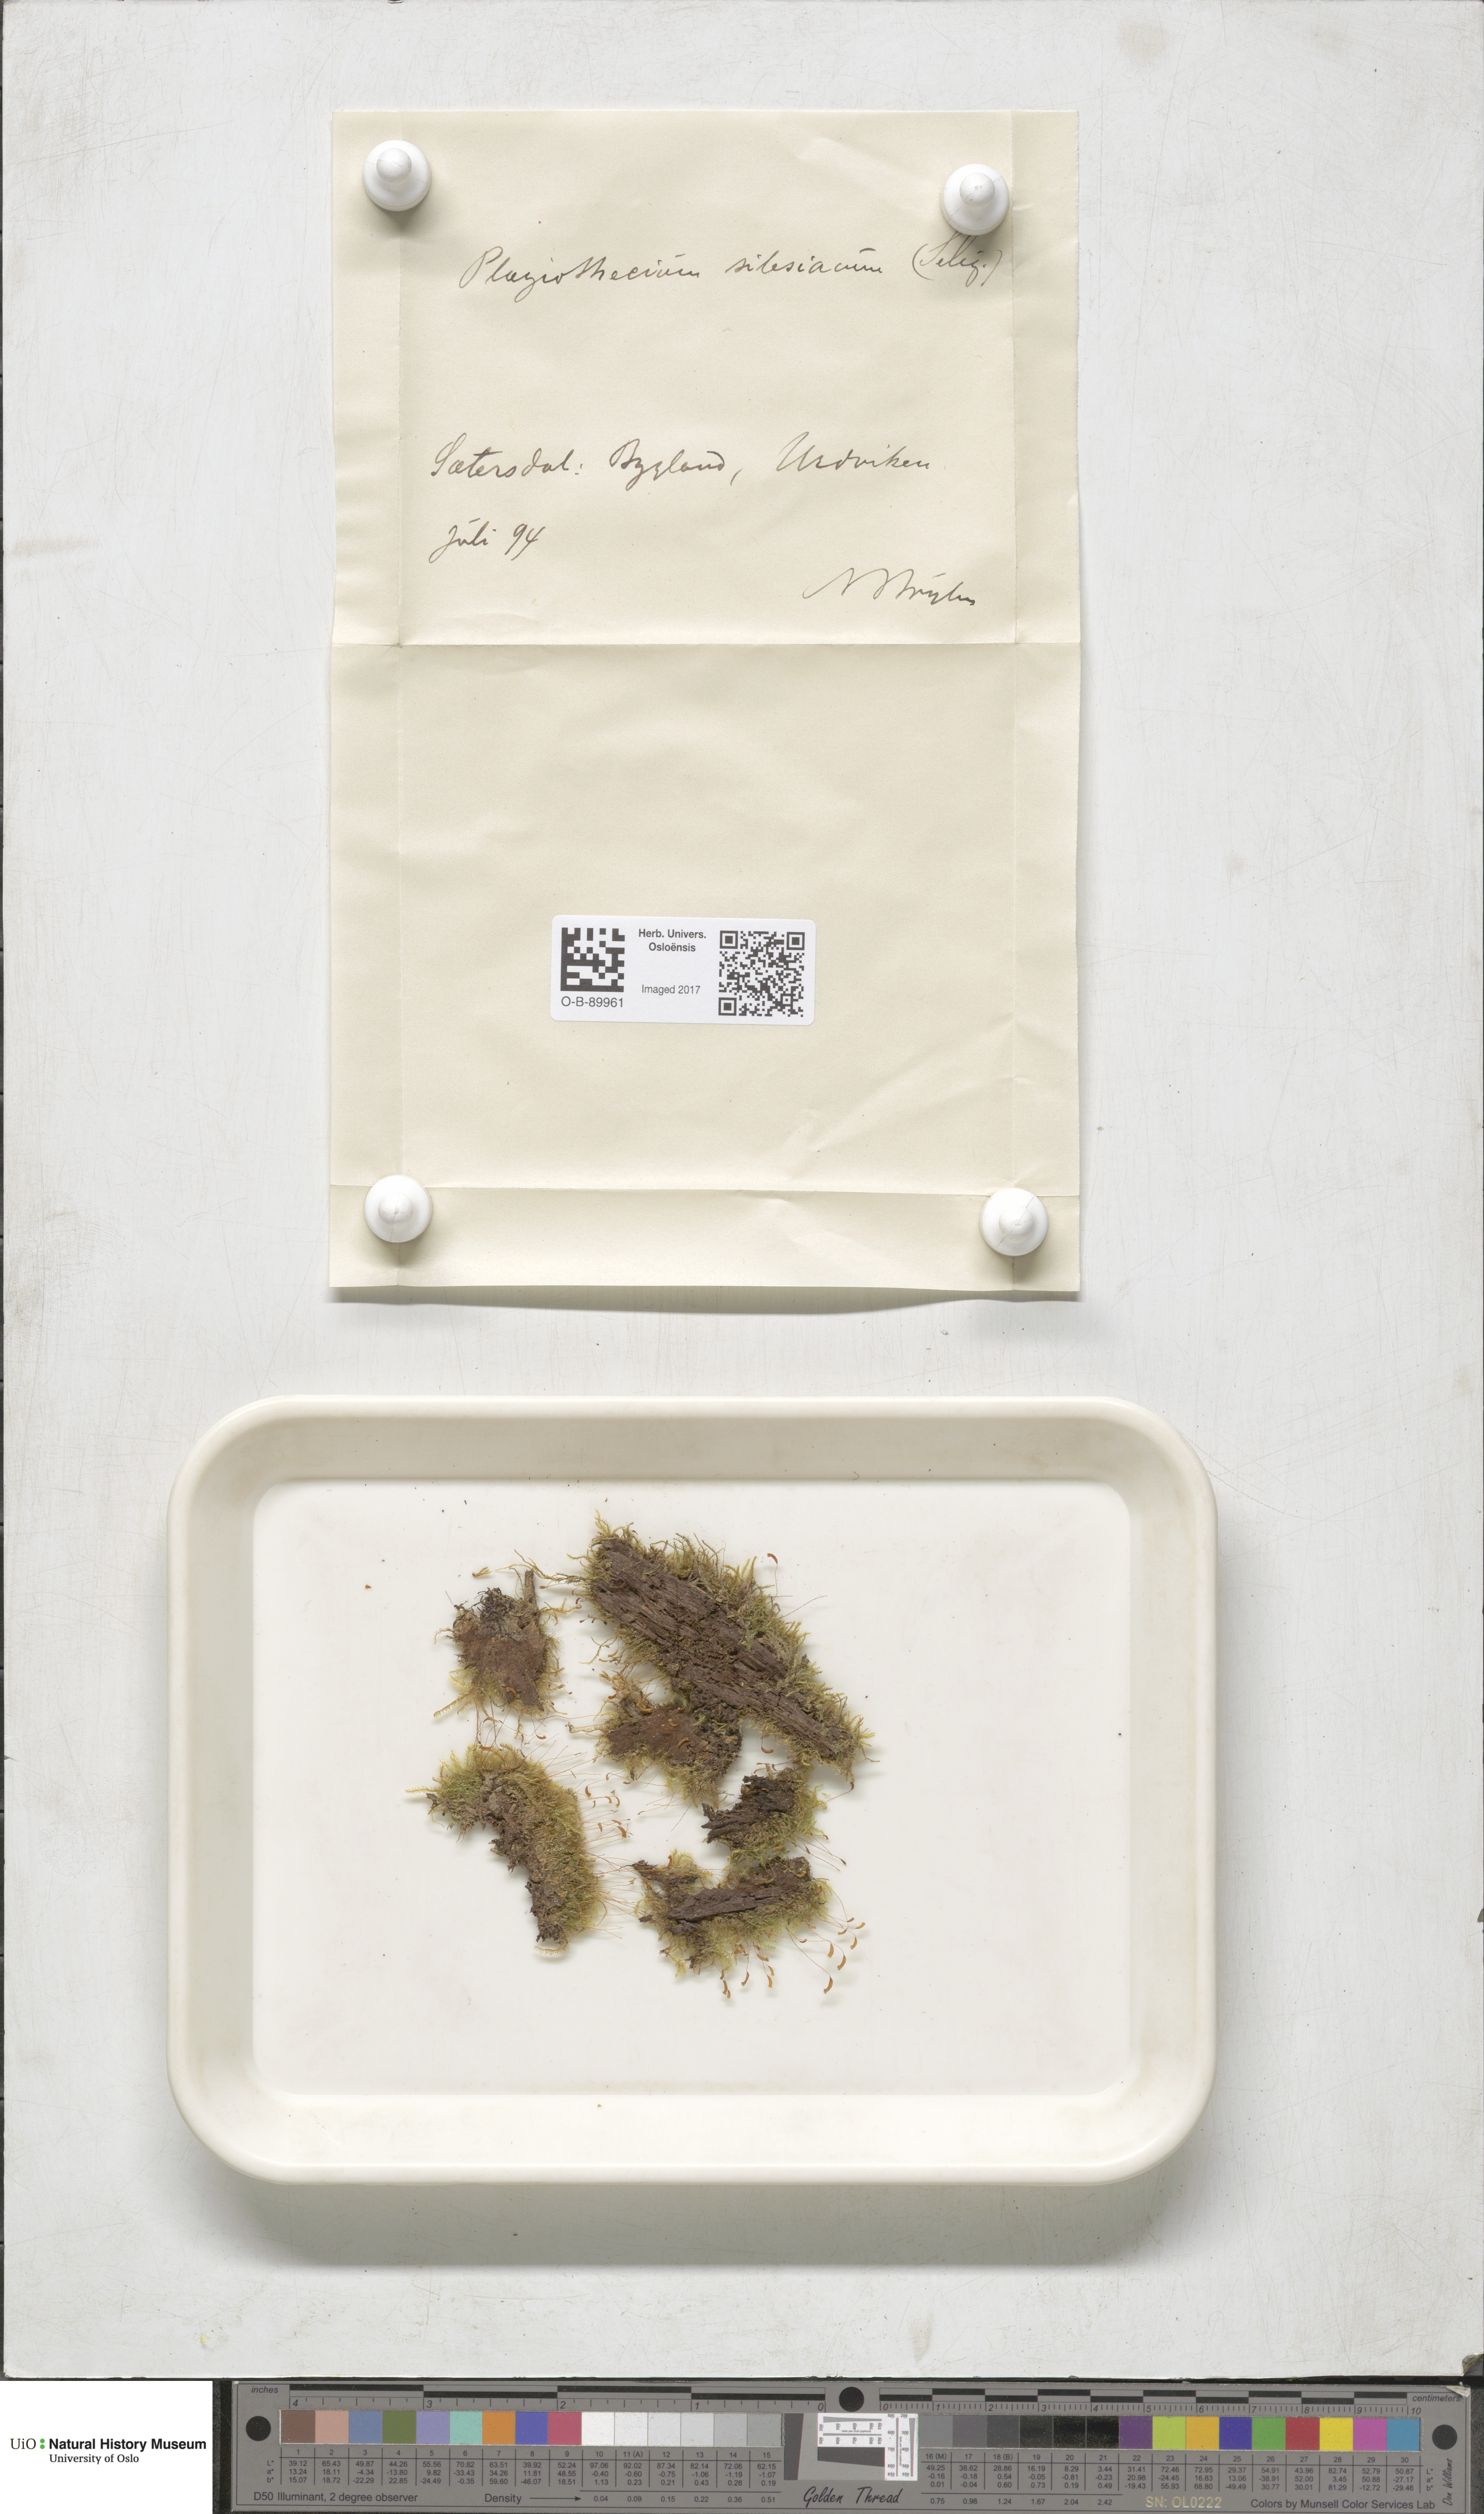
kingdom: Plantae
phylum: Bryophyta
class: Bryopsida
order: Hypnales
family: Plagiotheciaceae
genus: Herzogiella
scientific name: Herzogiella seligeri
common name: Silesian feather-moss
